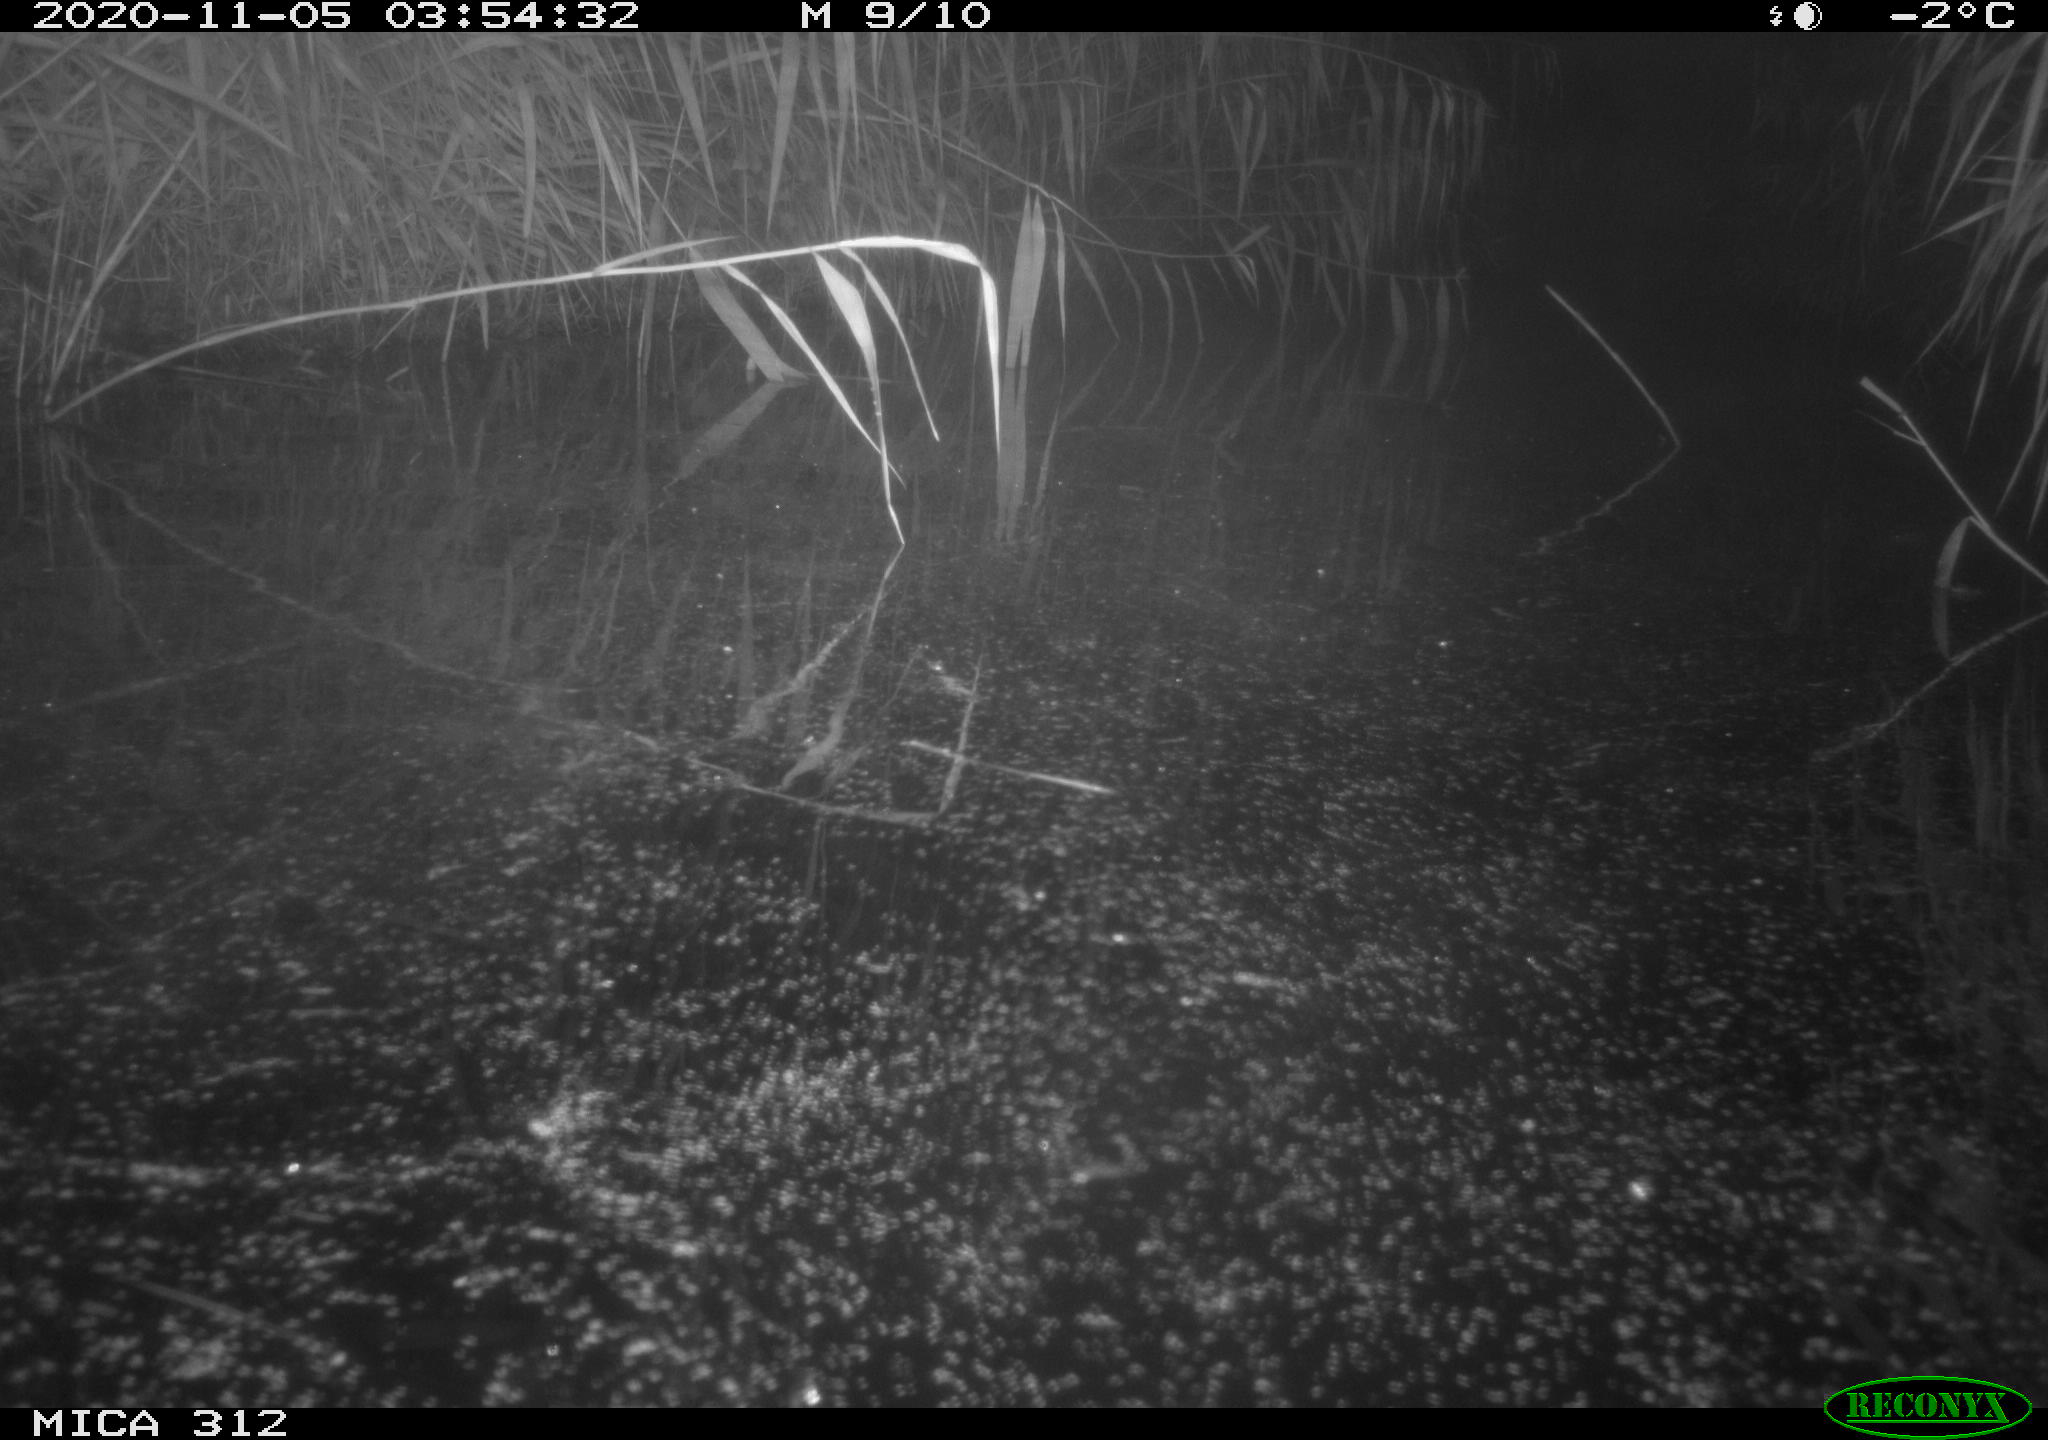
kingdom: Animalia
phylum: Chordata
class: Mammalia
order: Rodentia
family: Cricetidae
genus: Ondatra
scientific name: Ondatra zibethicus
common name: Muskrat
